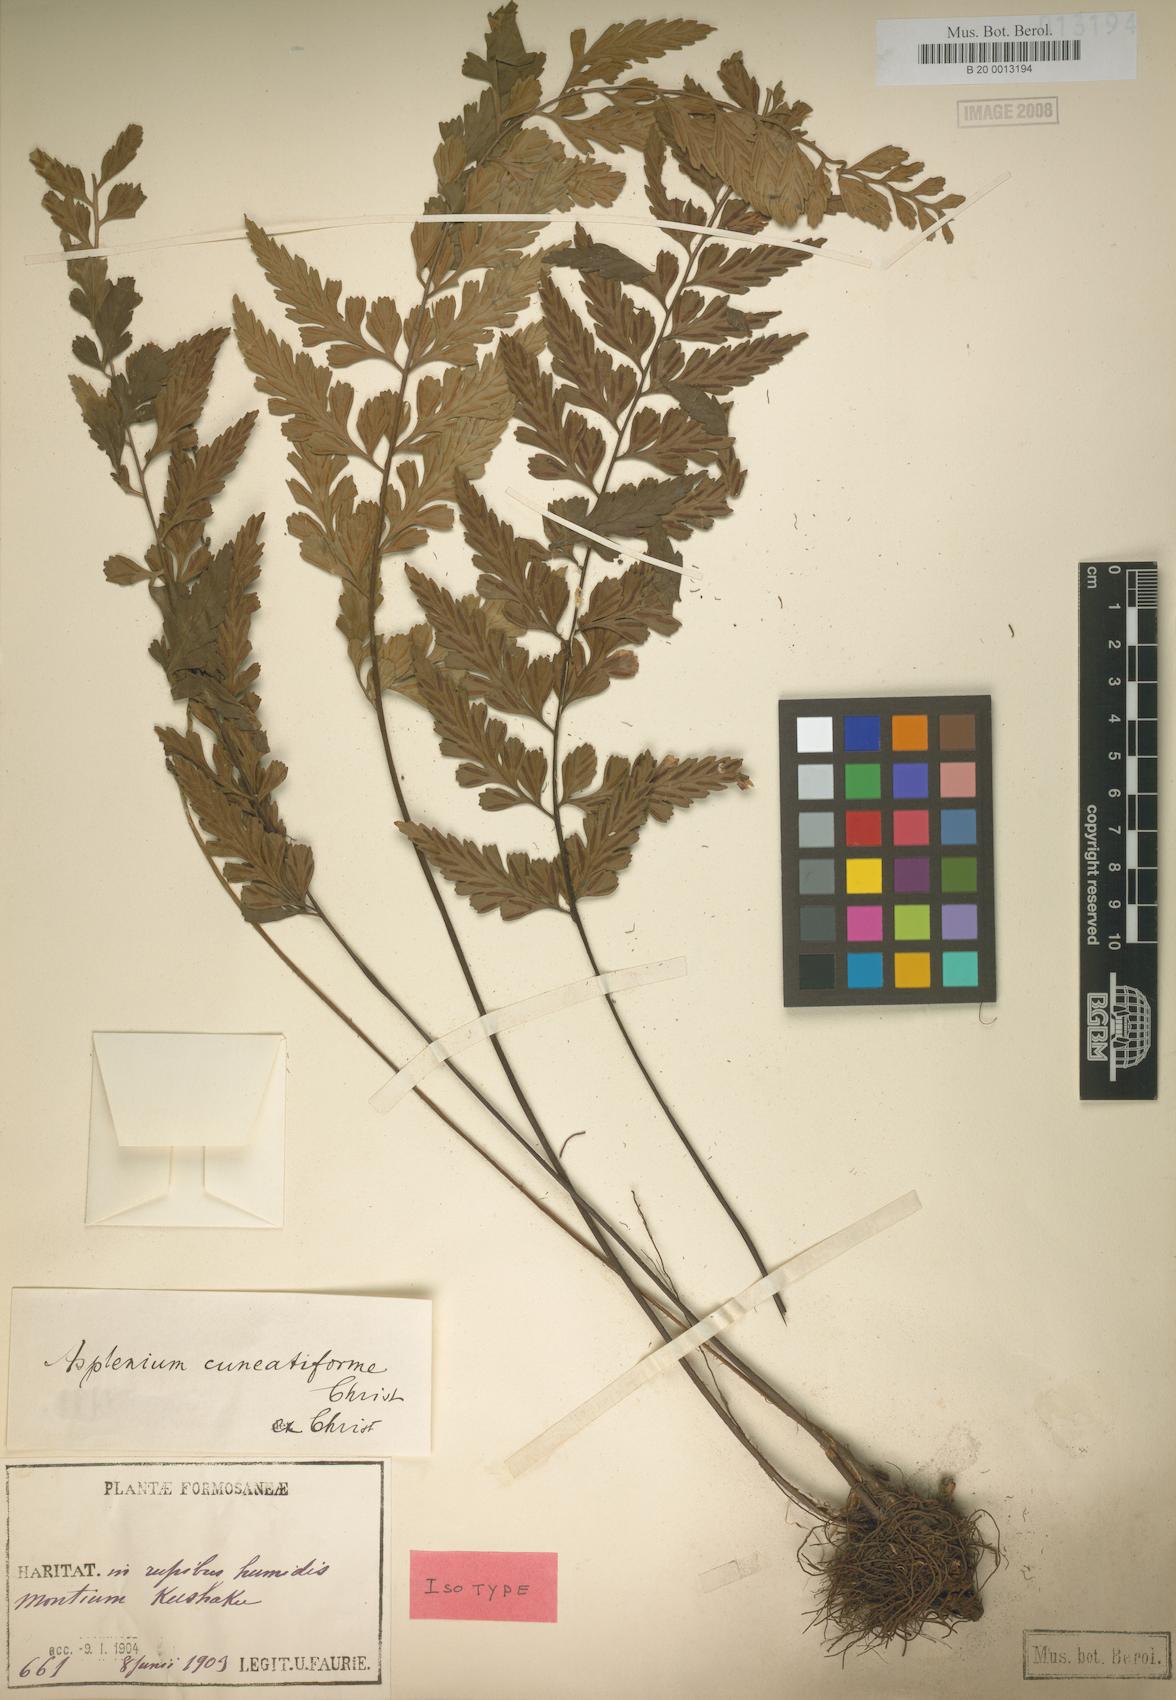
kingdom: Plantae
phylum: Tracheophyta
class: Polypodiopsida
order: Polypodiales
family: Aspleniaceae
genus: Asplenium
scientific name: Asplenium cuneatiforme
